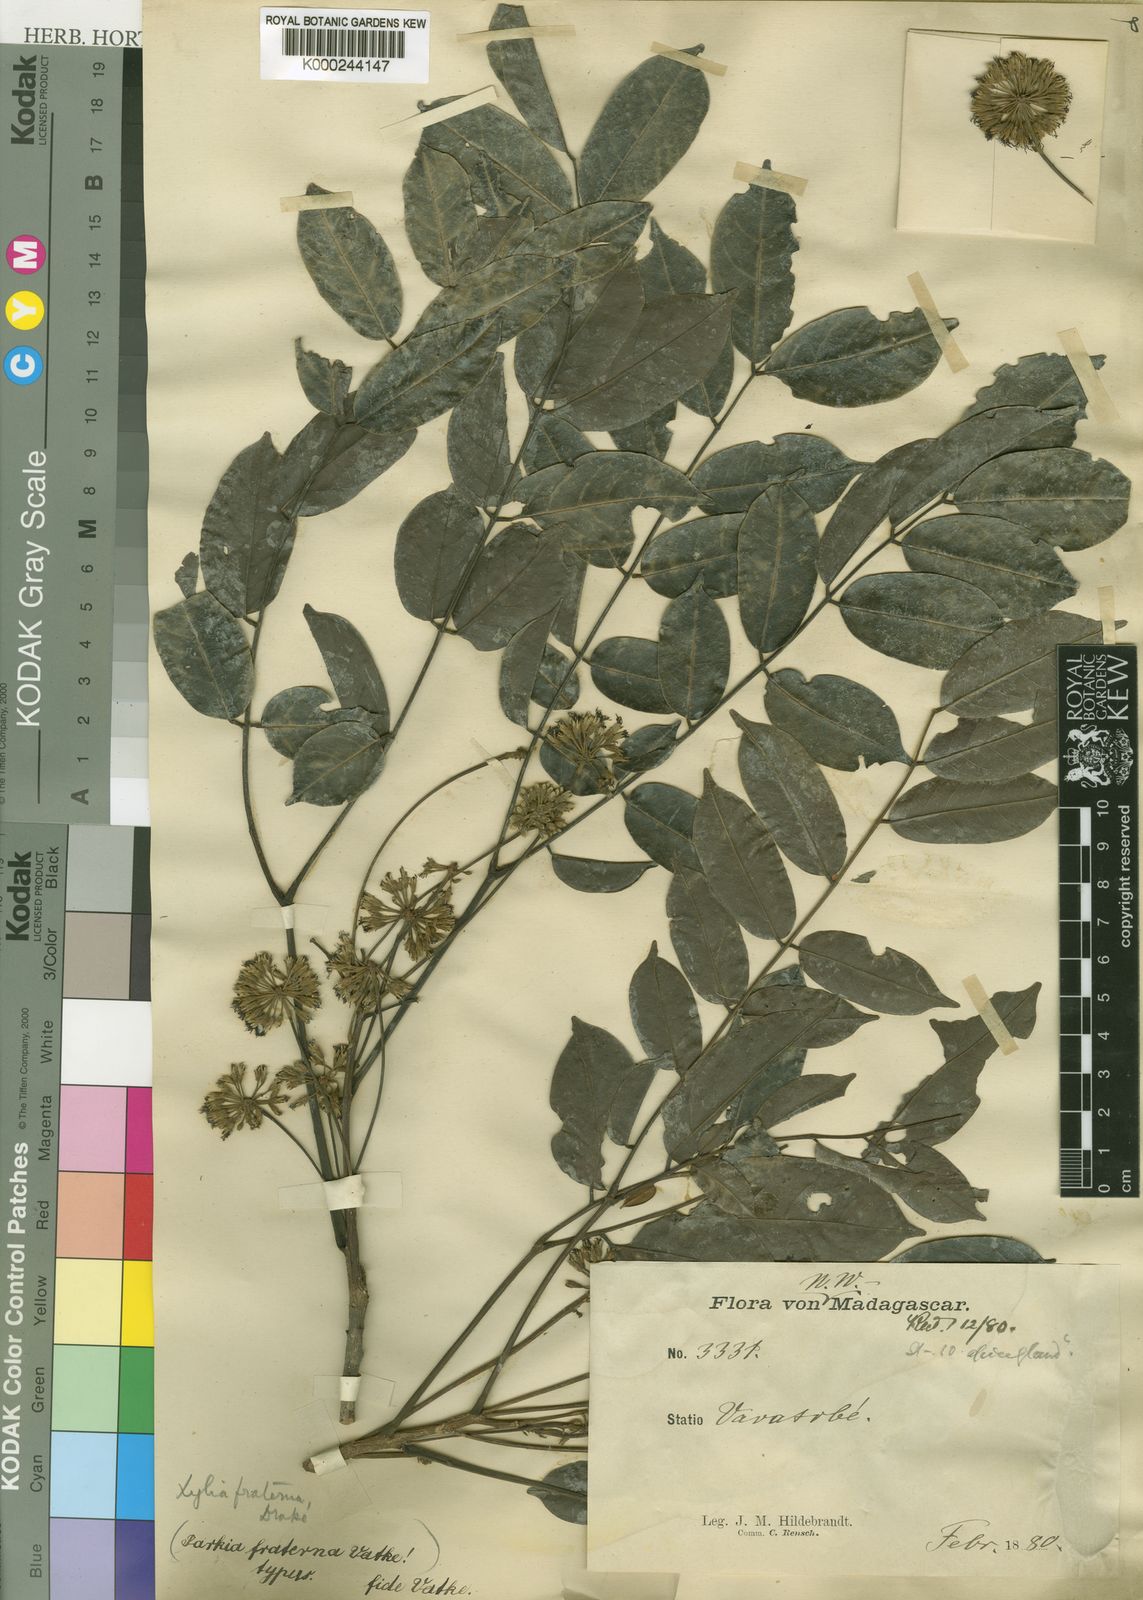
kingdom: Plantae
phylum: Tracheophyta
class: Magnoliopsida
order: Fabales
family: Fabaceae
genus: Xylia
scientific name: Xylia fraterna
